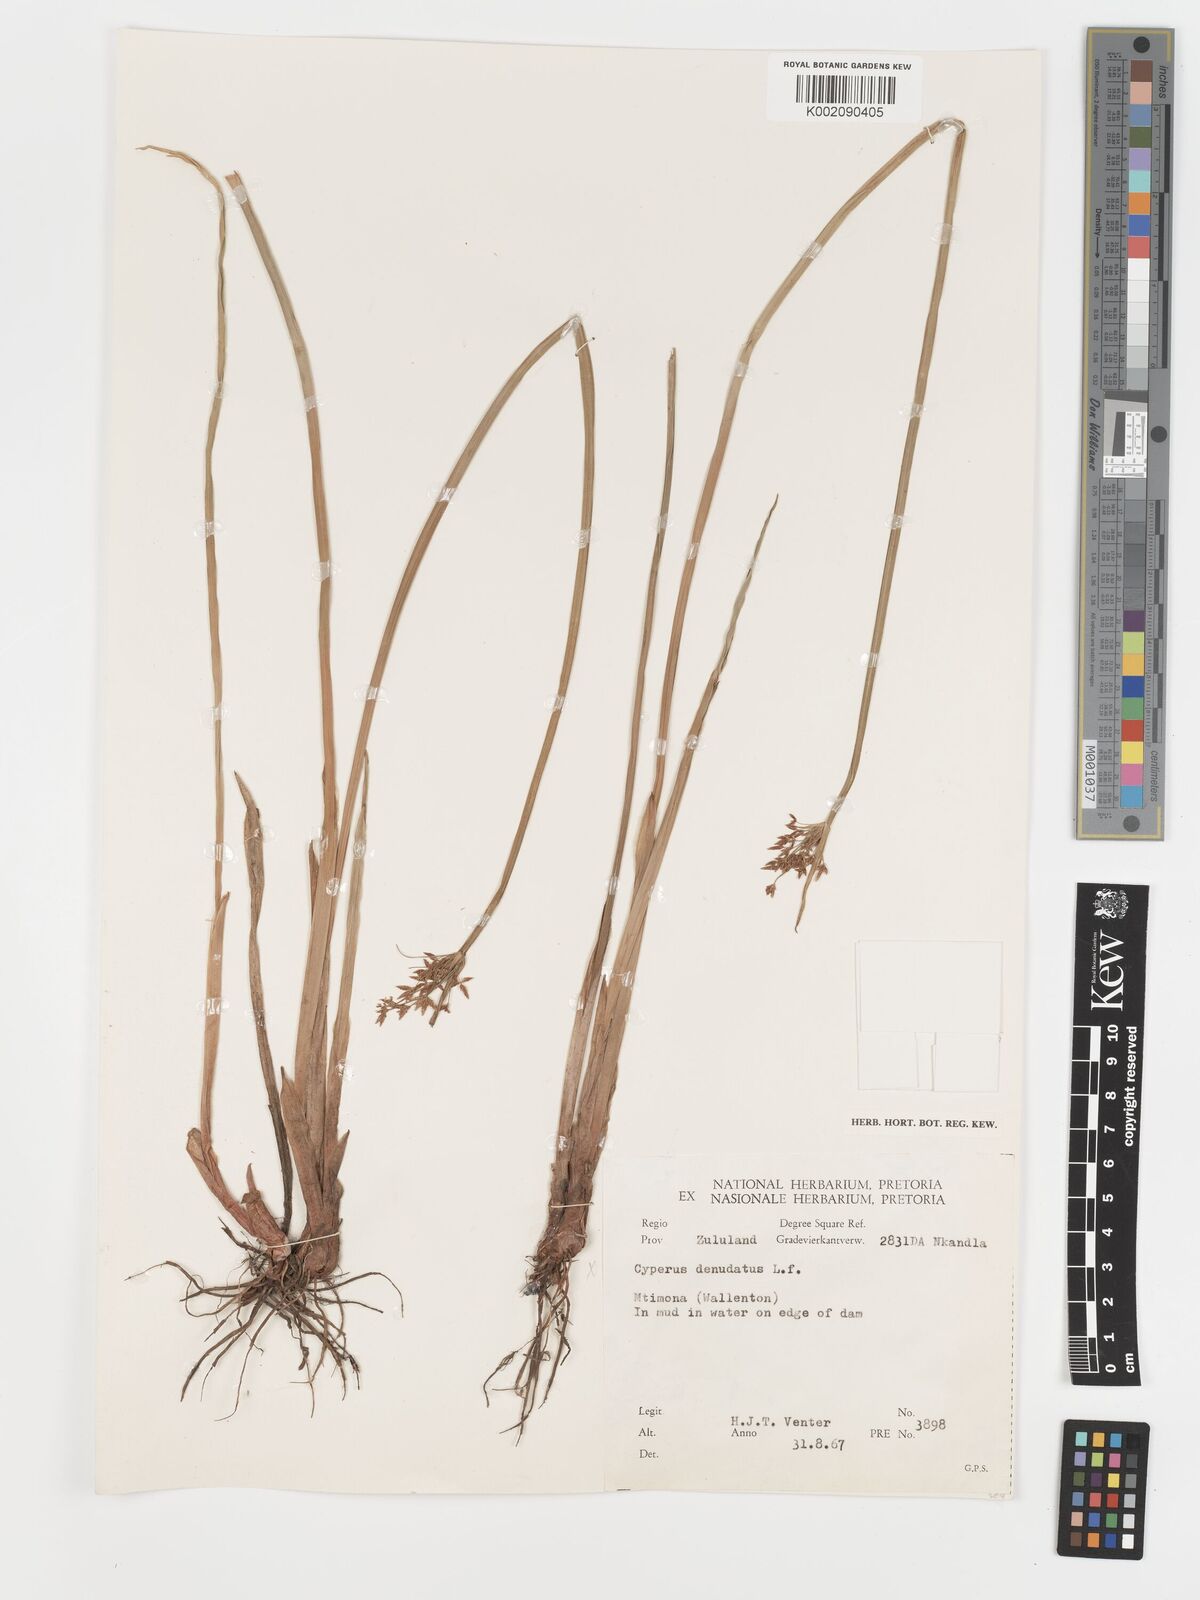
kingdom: Plantae
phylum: Tracheophyta
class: Liliopsida
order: Poales
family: Cyperaceae
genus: Cyperus
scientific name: Cyperus platycaulis
